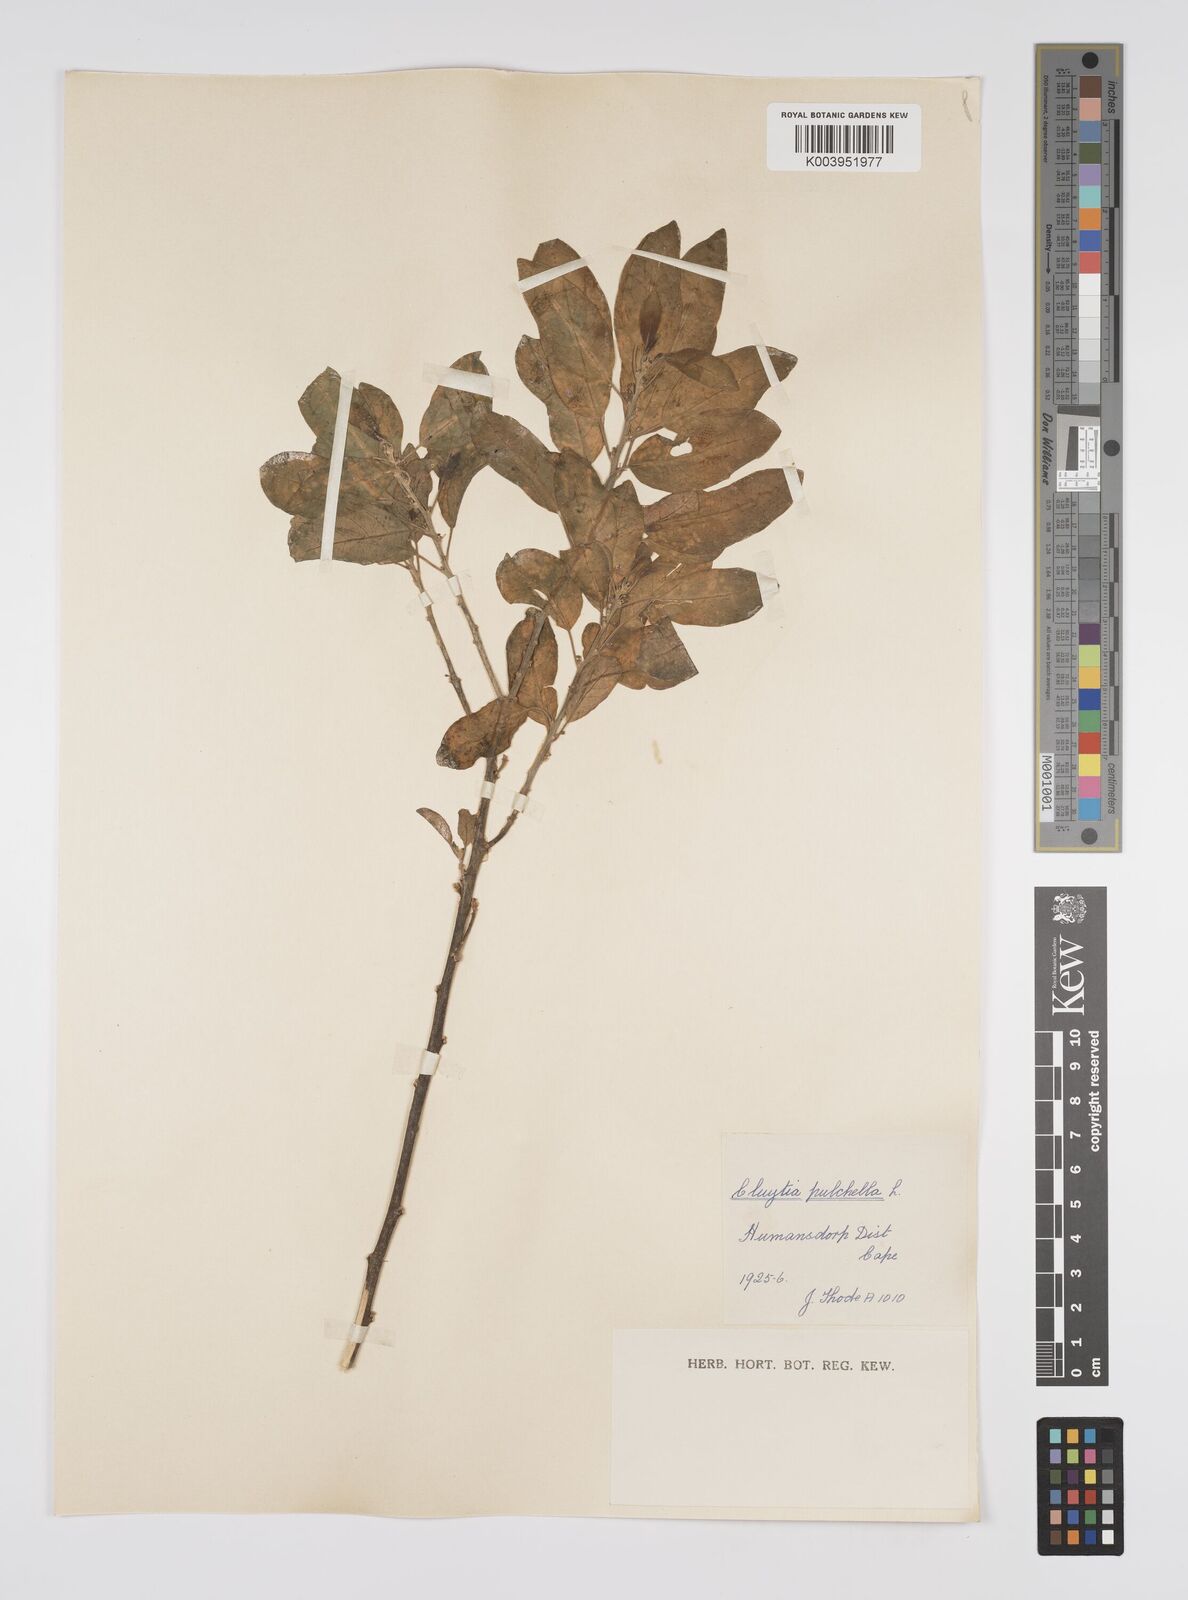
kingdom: Plantae
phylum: Tracheophyta
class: Magnoliopsida
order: Malpighiales
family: Peraceae
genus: Clutia
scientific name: Clutia pulchella
